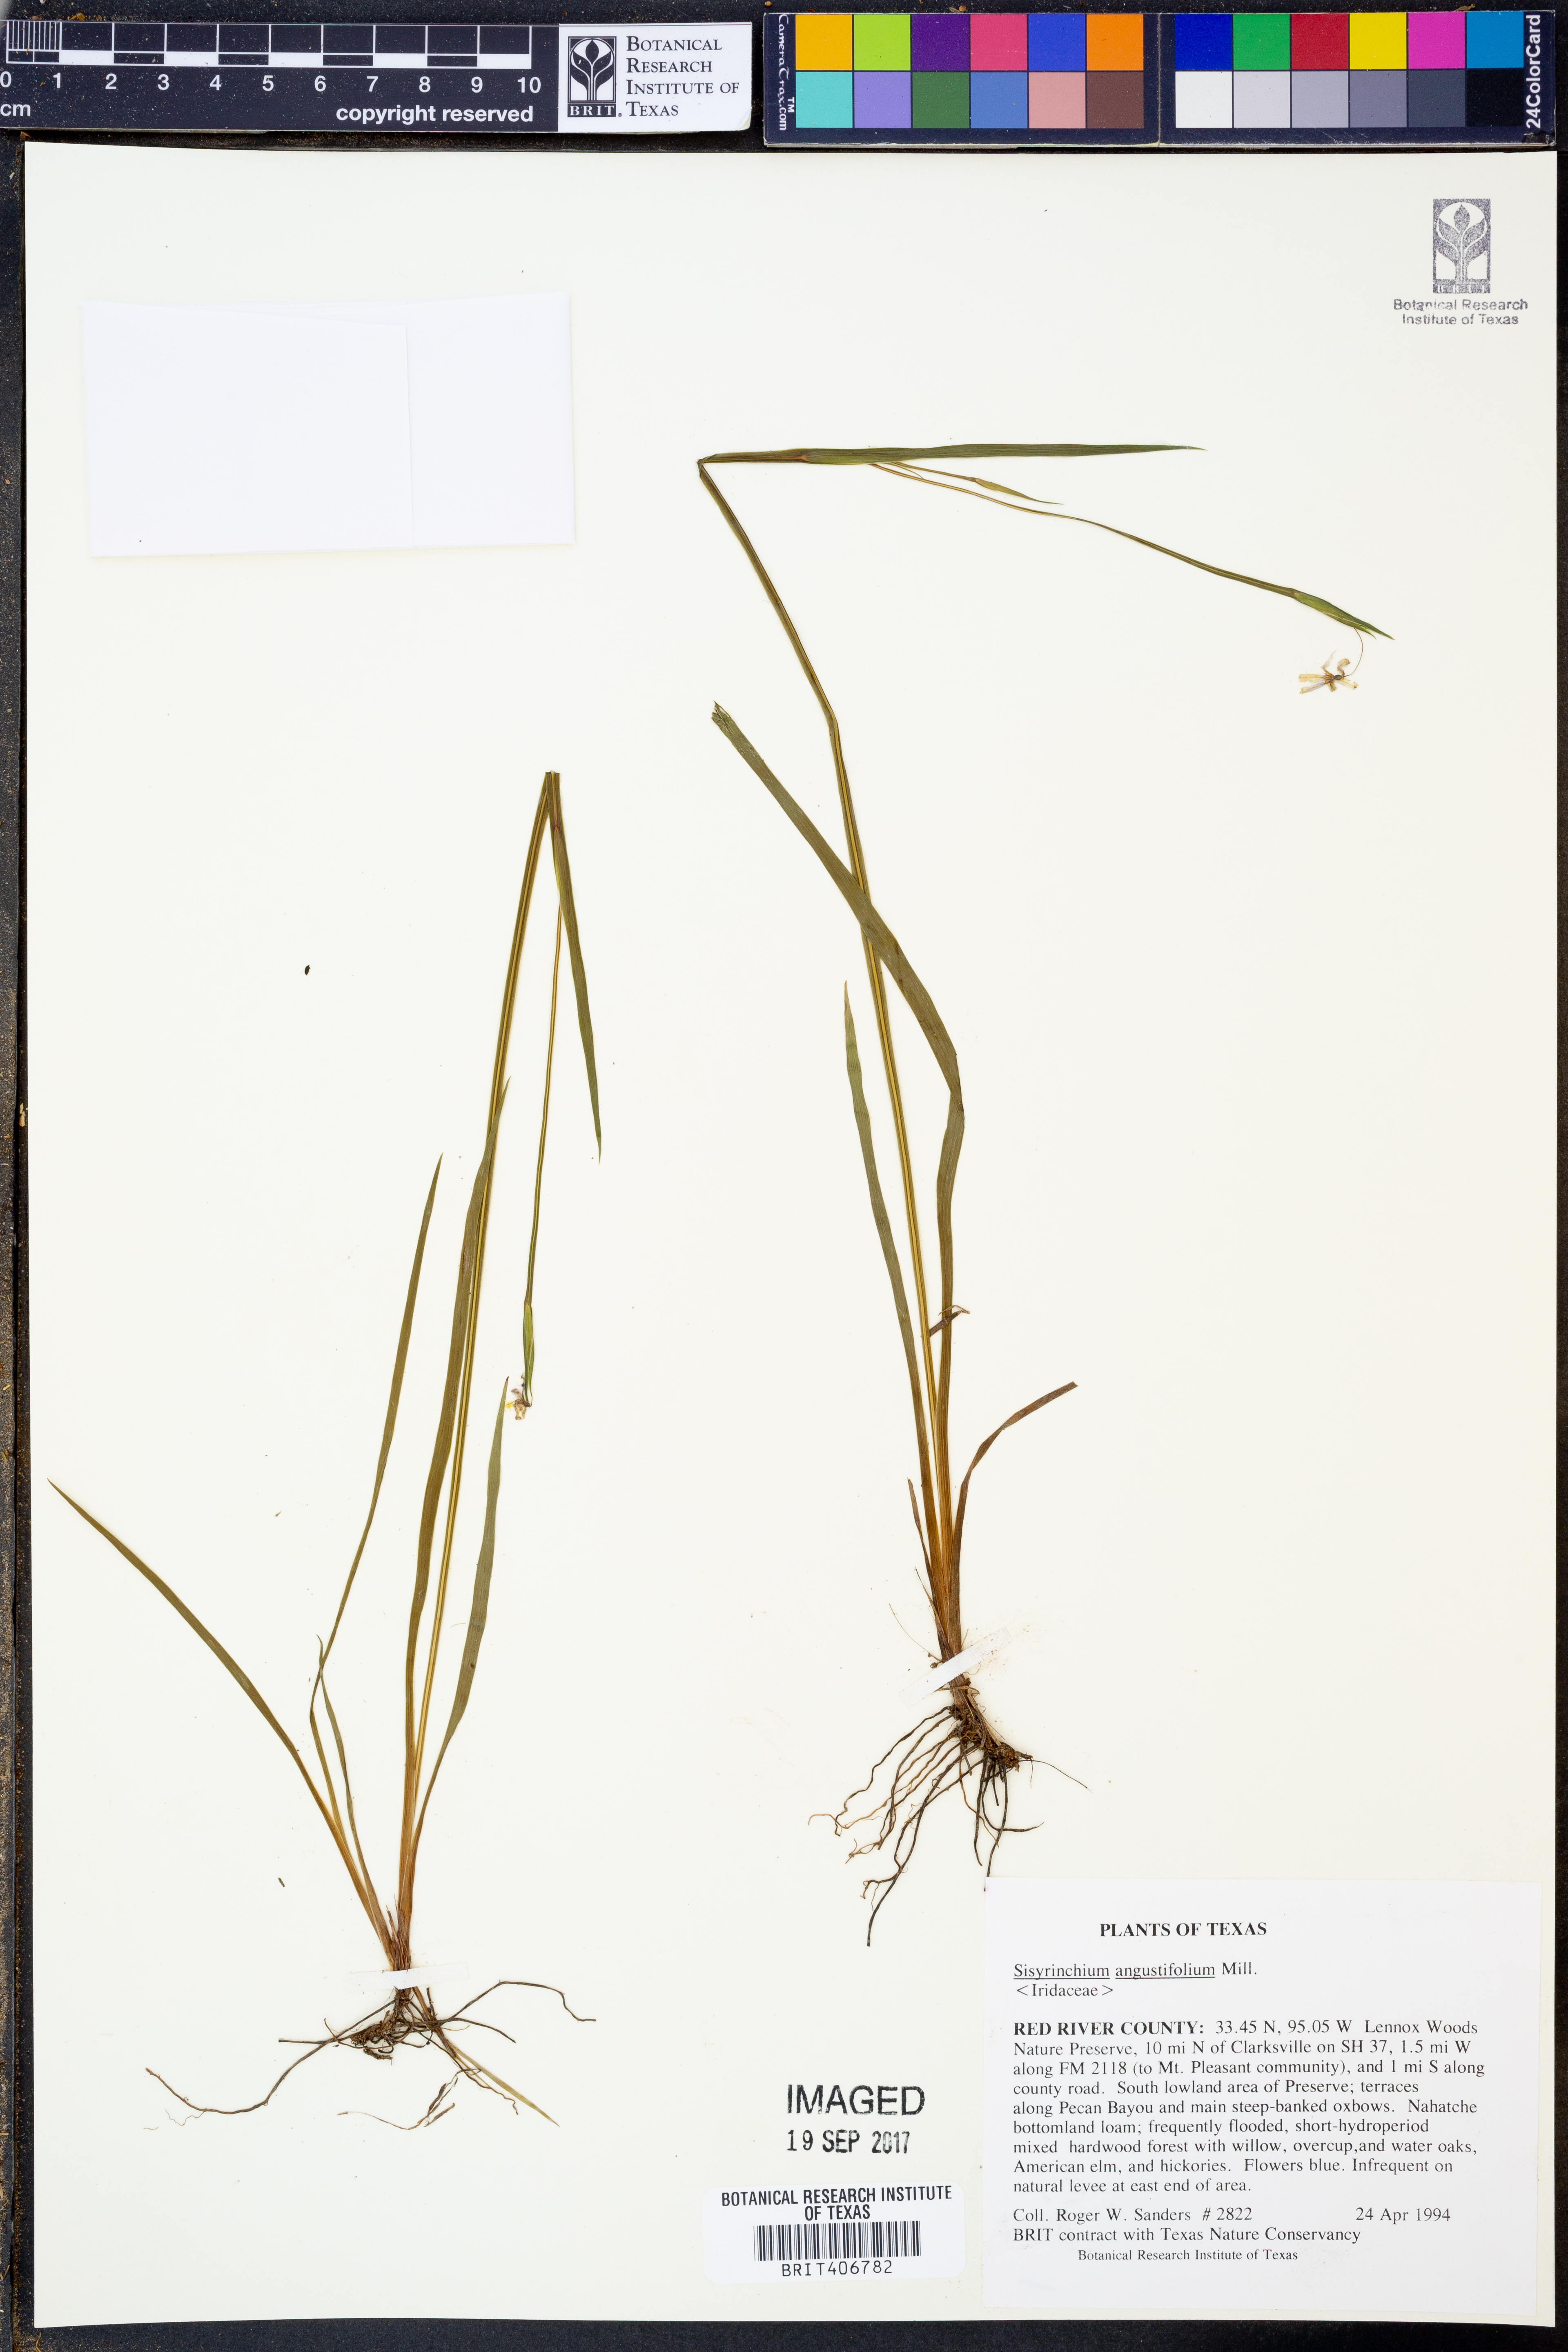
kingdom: Plantae
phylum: Tracheophyta
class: Liliopsida
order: Asparagales
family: Iridaceae
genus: Sisyrinchium
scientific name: Sisyrinchium angustifolium
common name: Narrow-leaf blue-eyed-grass
